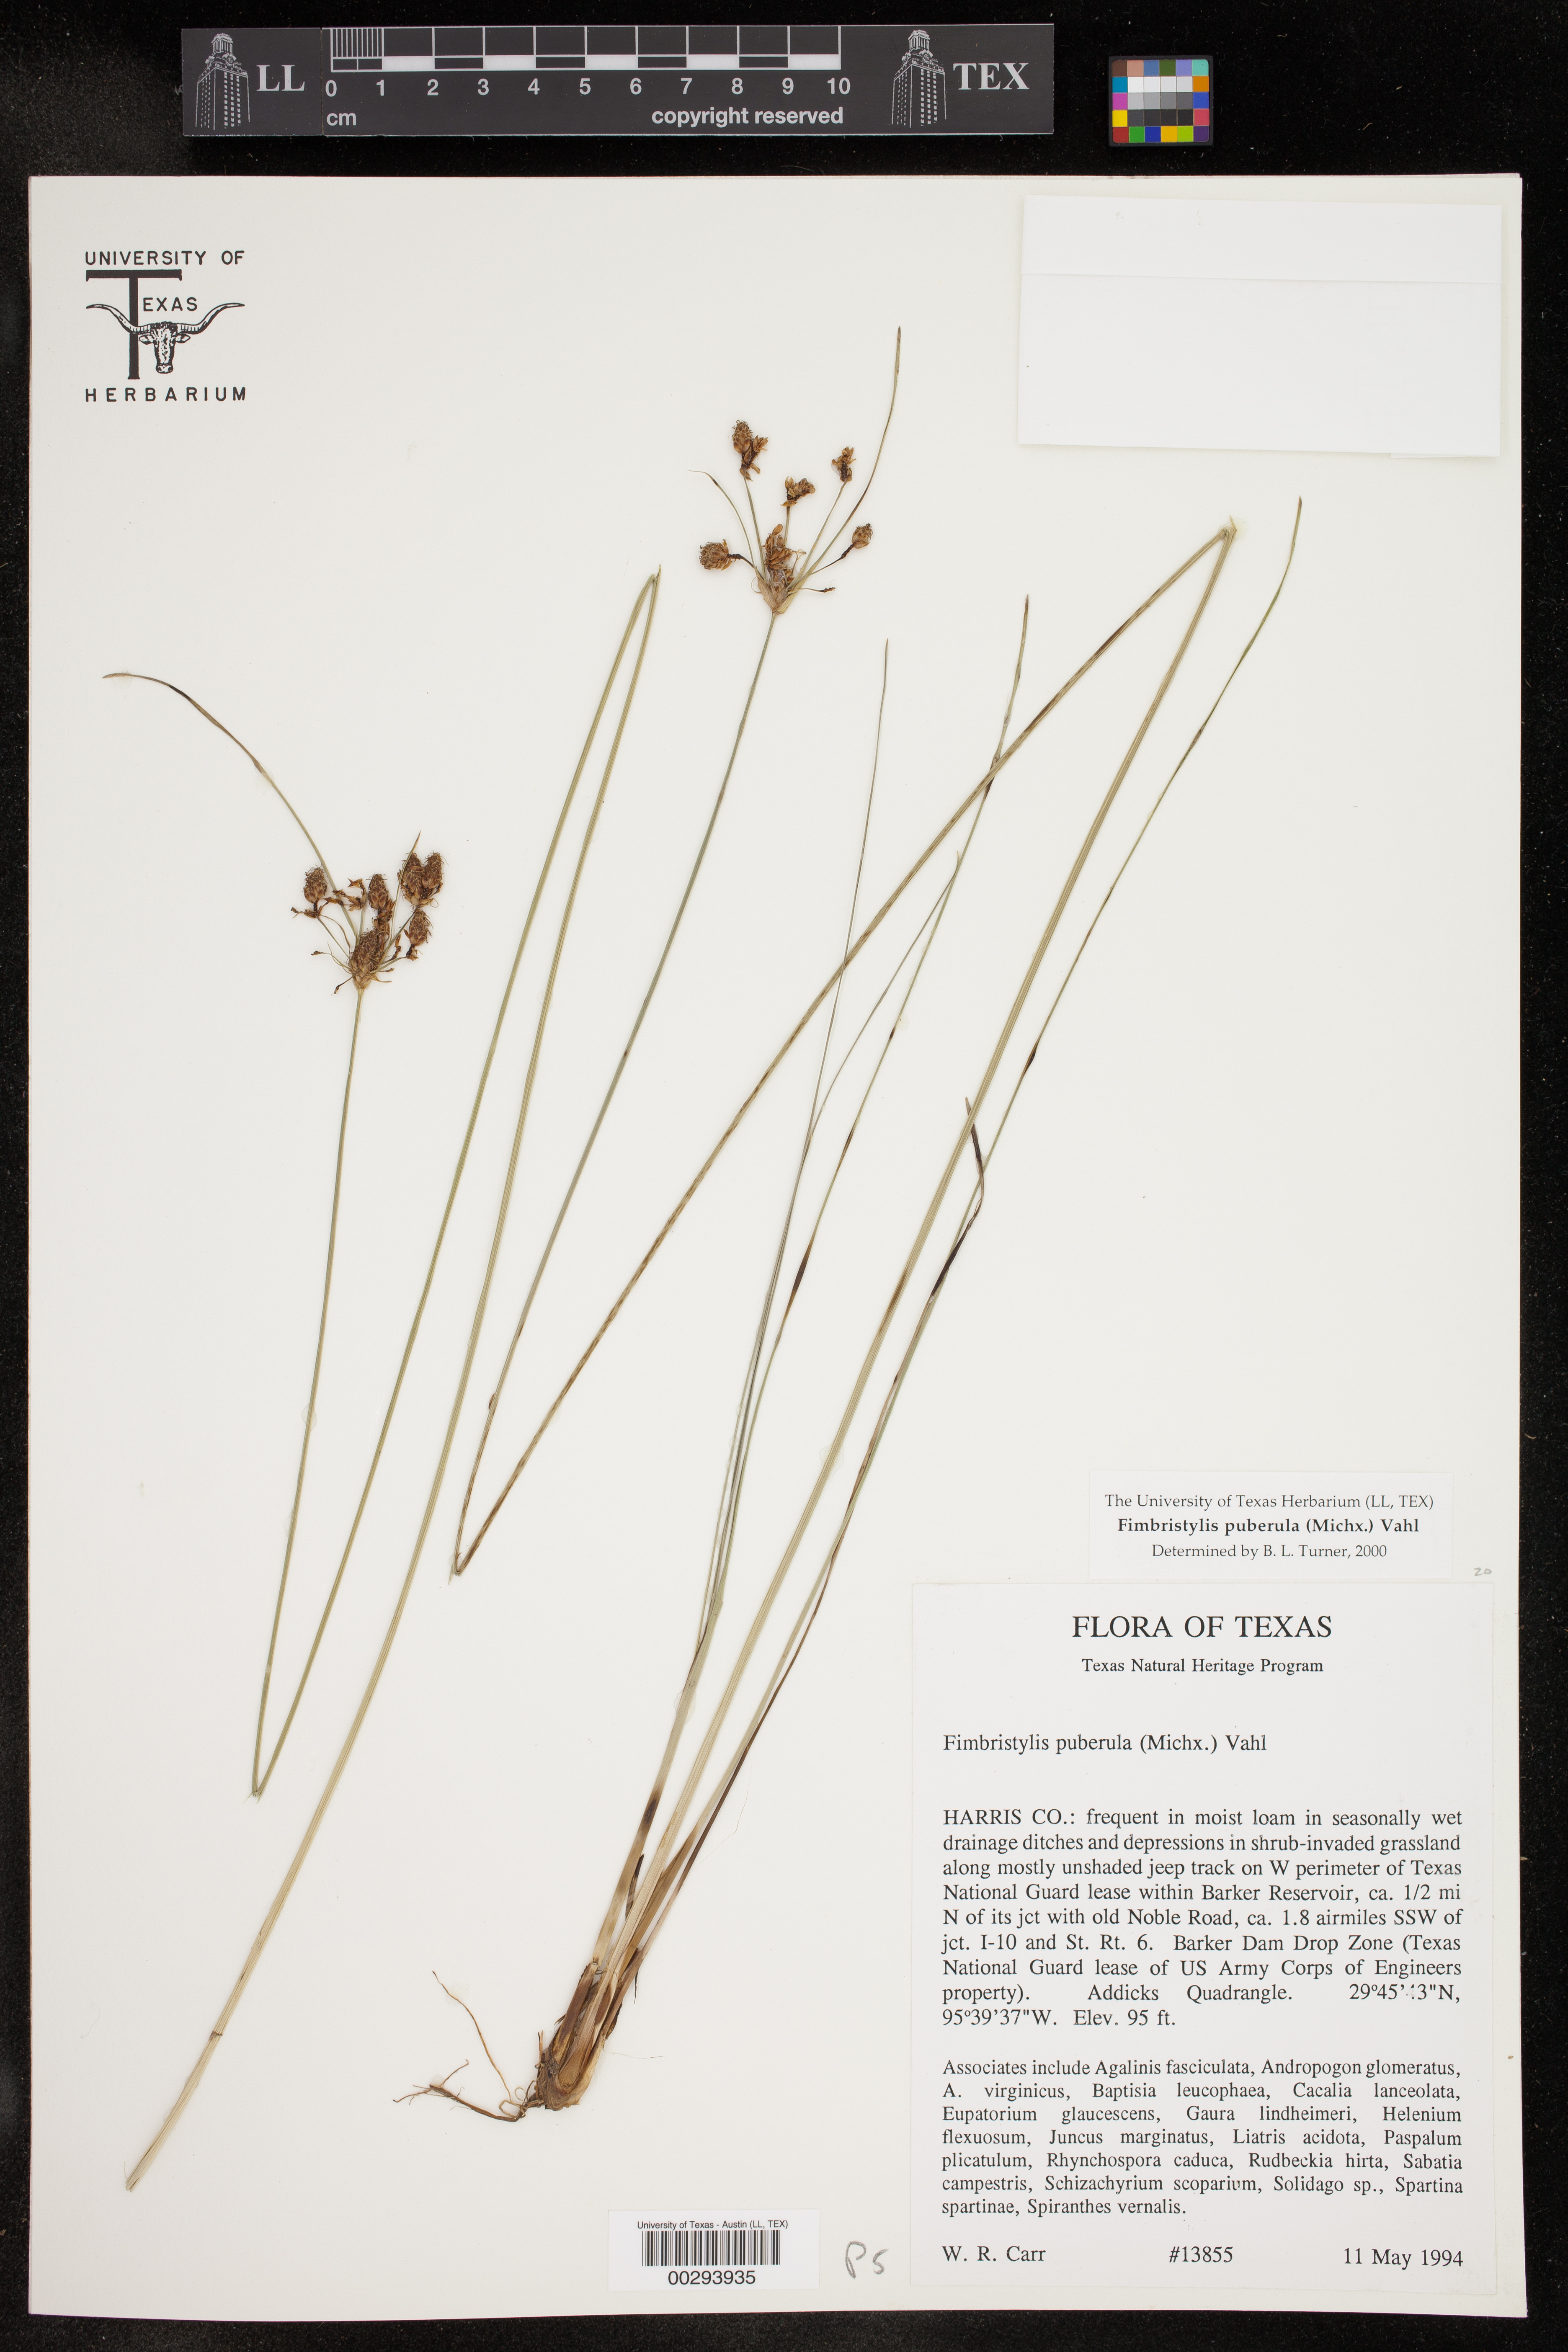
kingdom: Plantae
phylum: Tracheophyta
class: Liliopsida
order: Poales
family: Cyperaceae
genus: Fimbristylis
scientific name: Fimbristylis puberula
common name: Hairy fimbristylis
